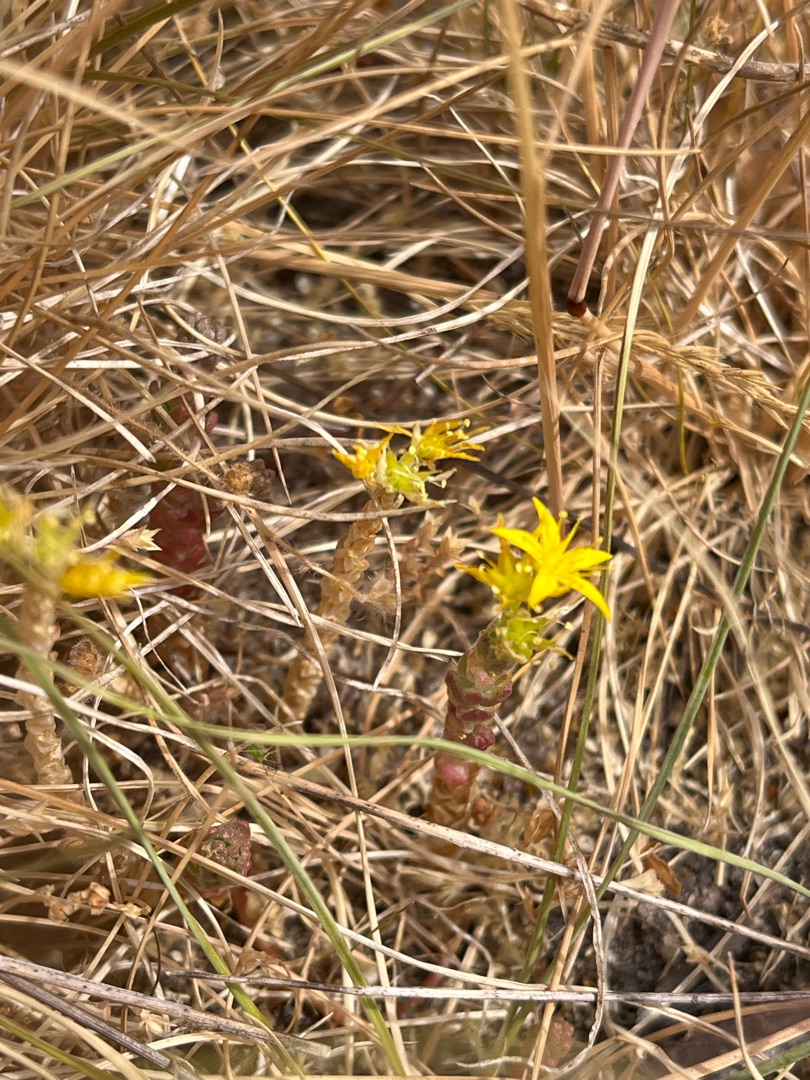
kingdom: Plantae
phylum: Tracheophyta
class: Magnoliopsida
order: Saxifragales
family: Crassulaceae
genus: Sedum
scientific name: Sedum acre
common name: Bidende stenurt
